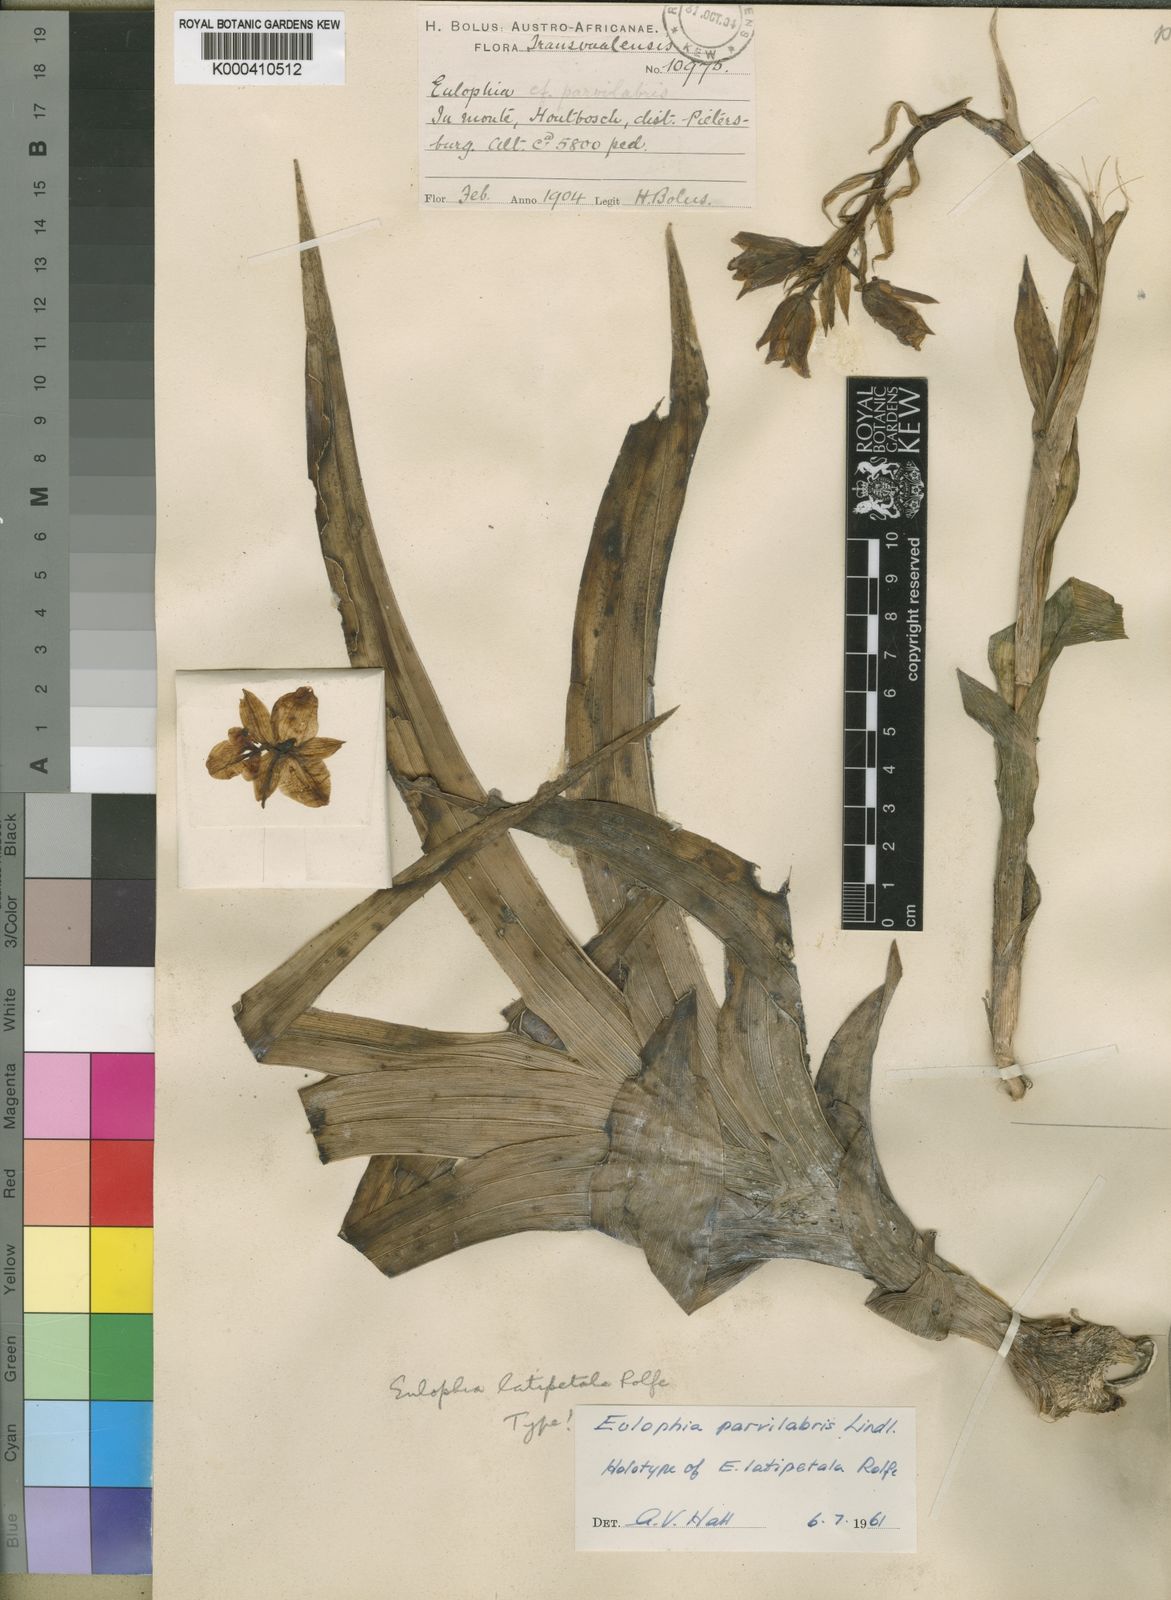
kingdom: Plantae
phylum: Tracheophyta
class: Liliopsida
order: Asparagales
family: Orchidaceae
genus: Eulophia
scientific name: Eulophia parvilabris
